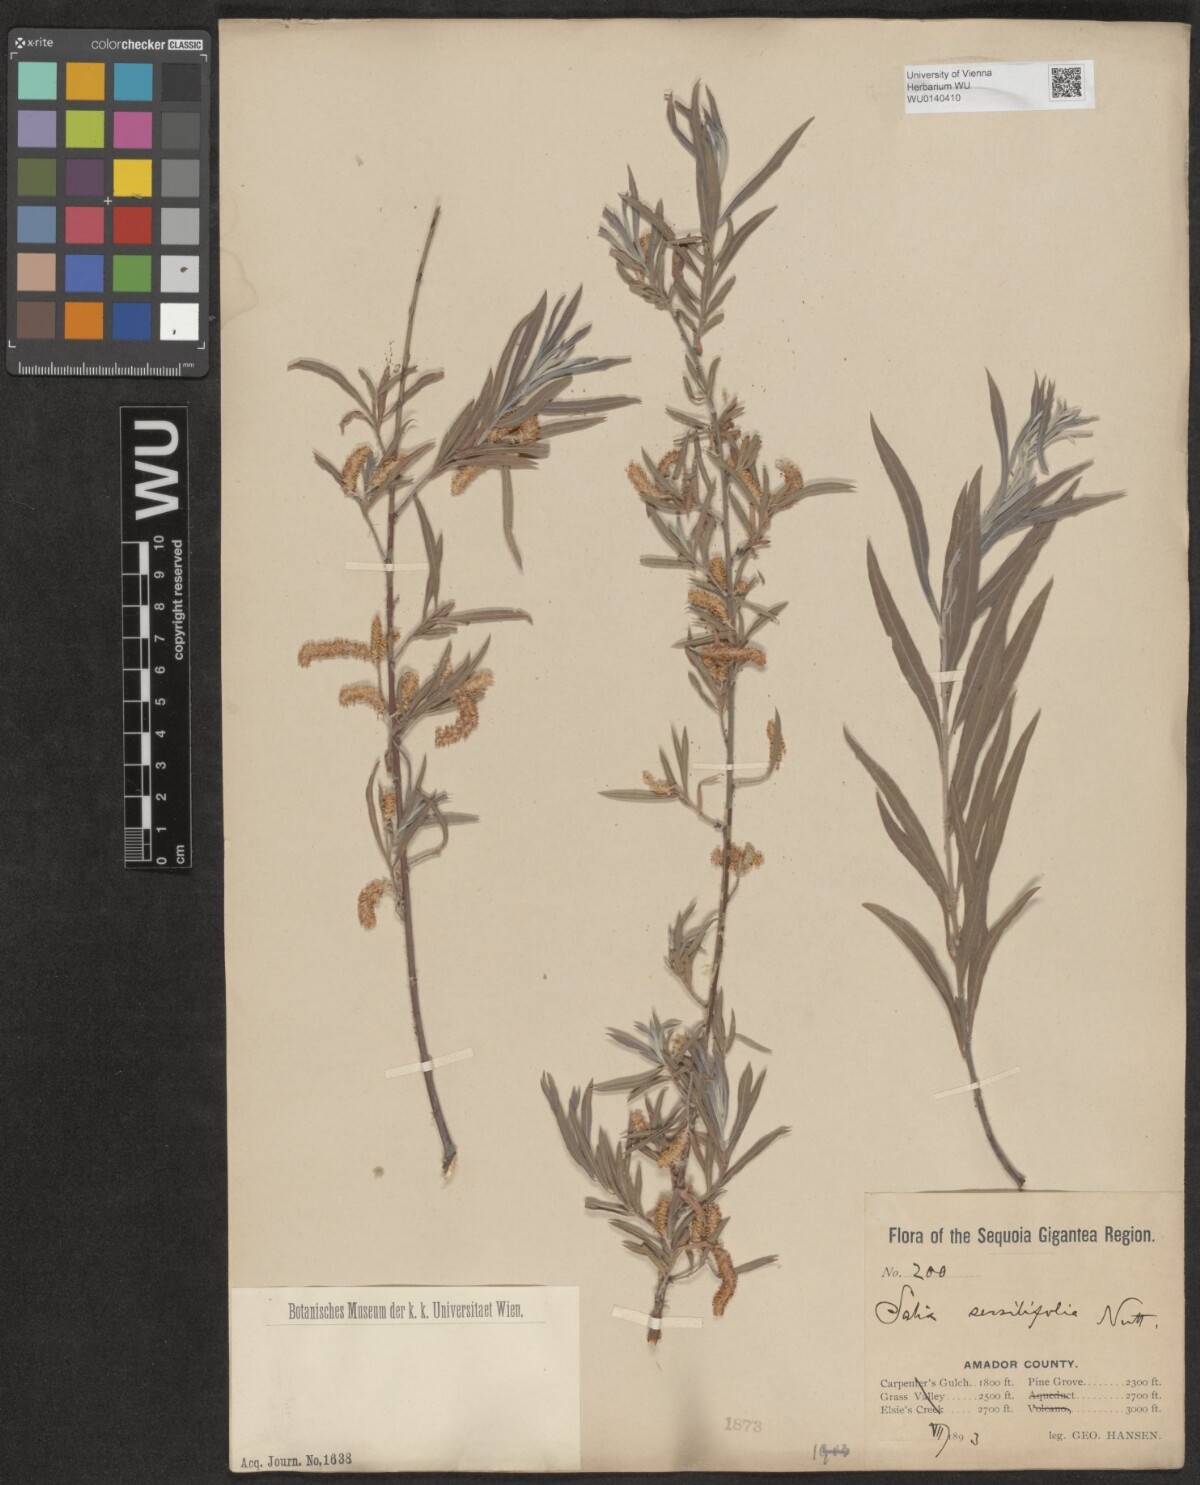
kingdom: Plantae
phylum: Tracheophyta
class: Magnoliopsida
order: Malpighiales
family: Salicaceae
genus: Salix
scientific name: Salix sessilifolia
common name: Longleaf willow
